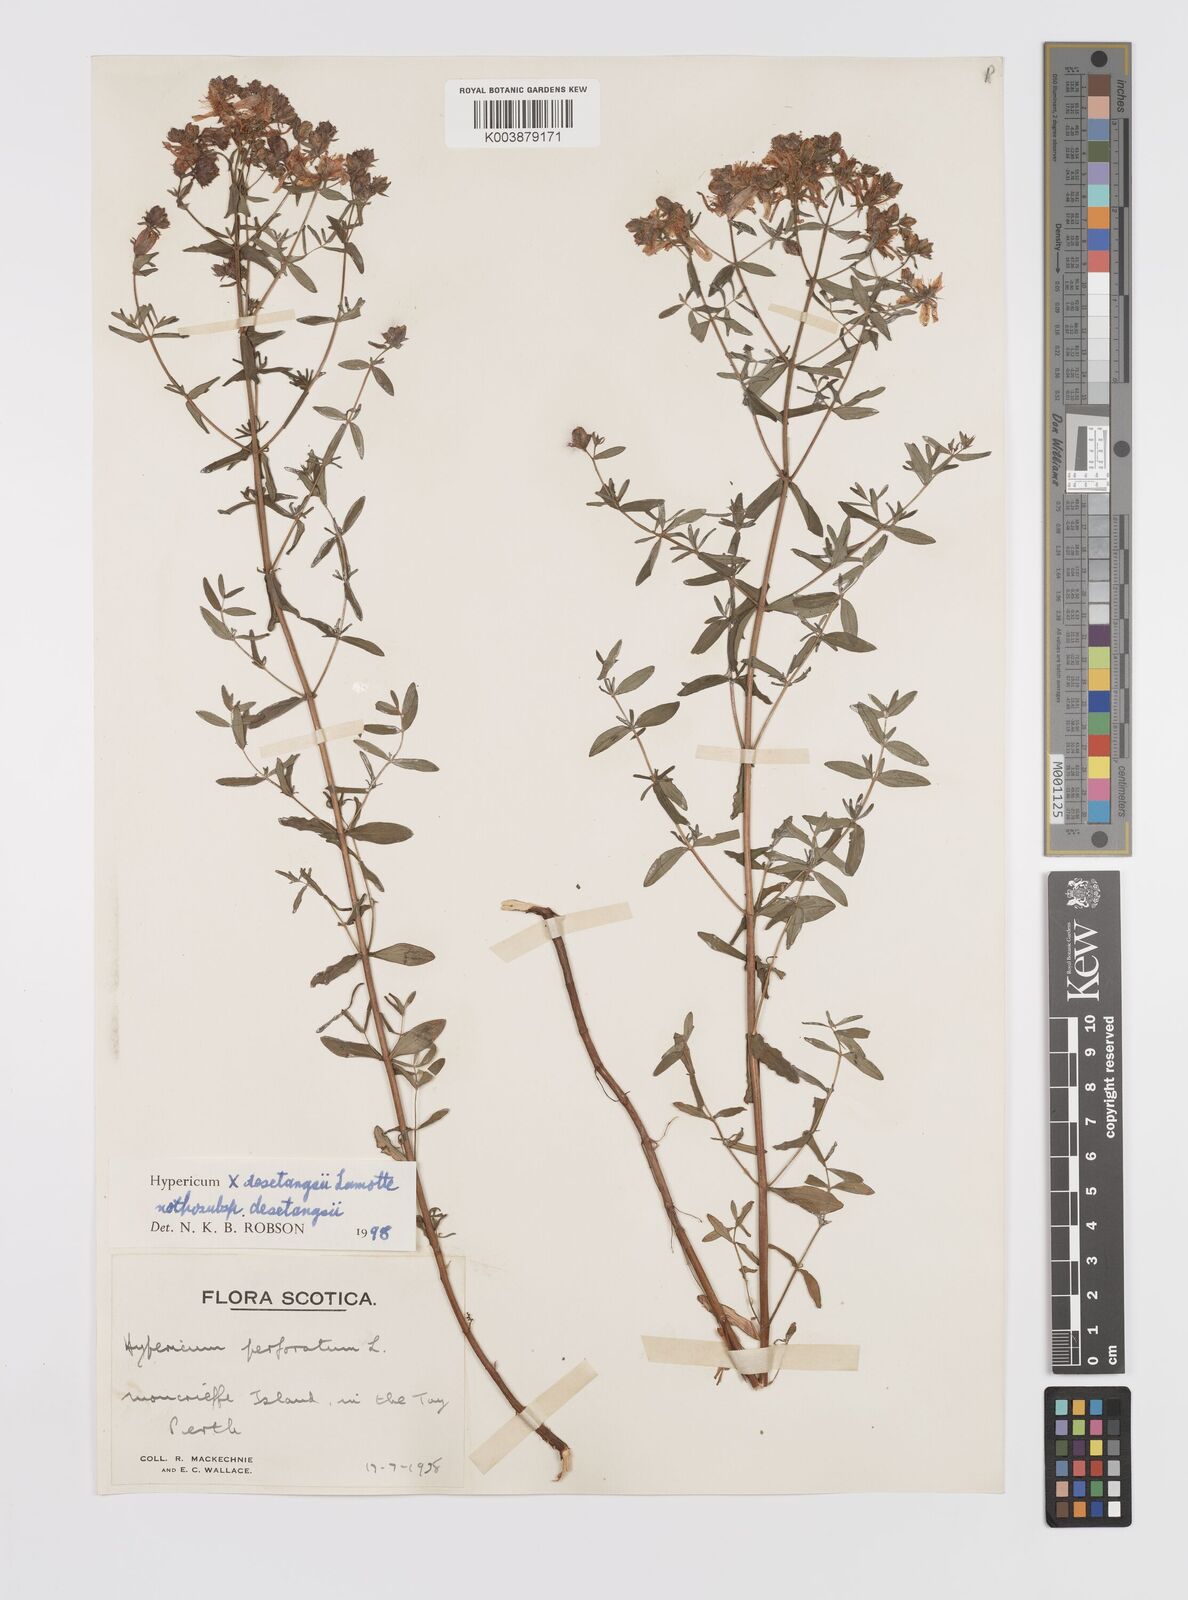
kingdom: Plantae
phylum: Tracheophyta
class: Magnoliopsida
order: Malpighiales
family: Hypericaceae
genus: Hypericum
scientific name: Hypericum desetangsii
